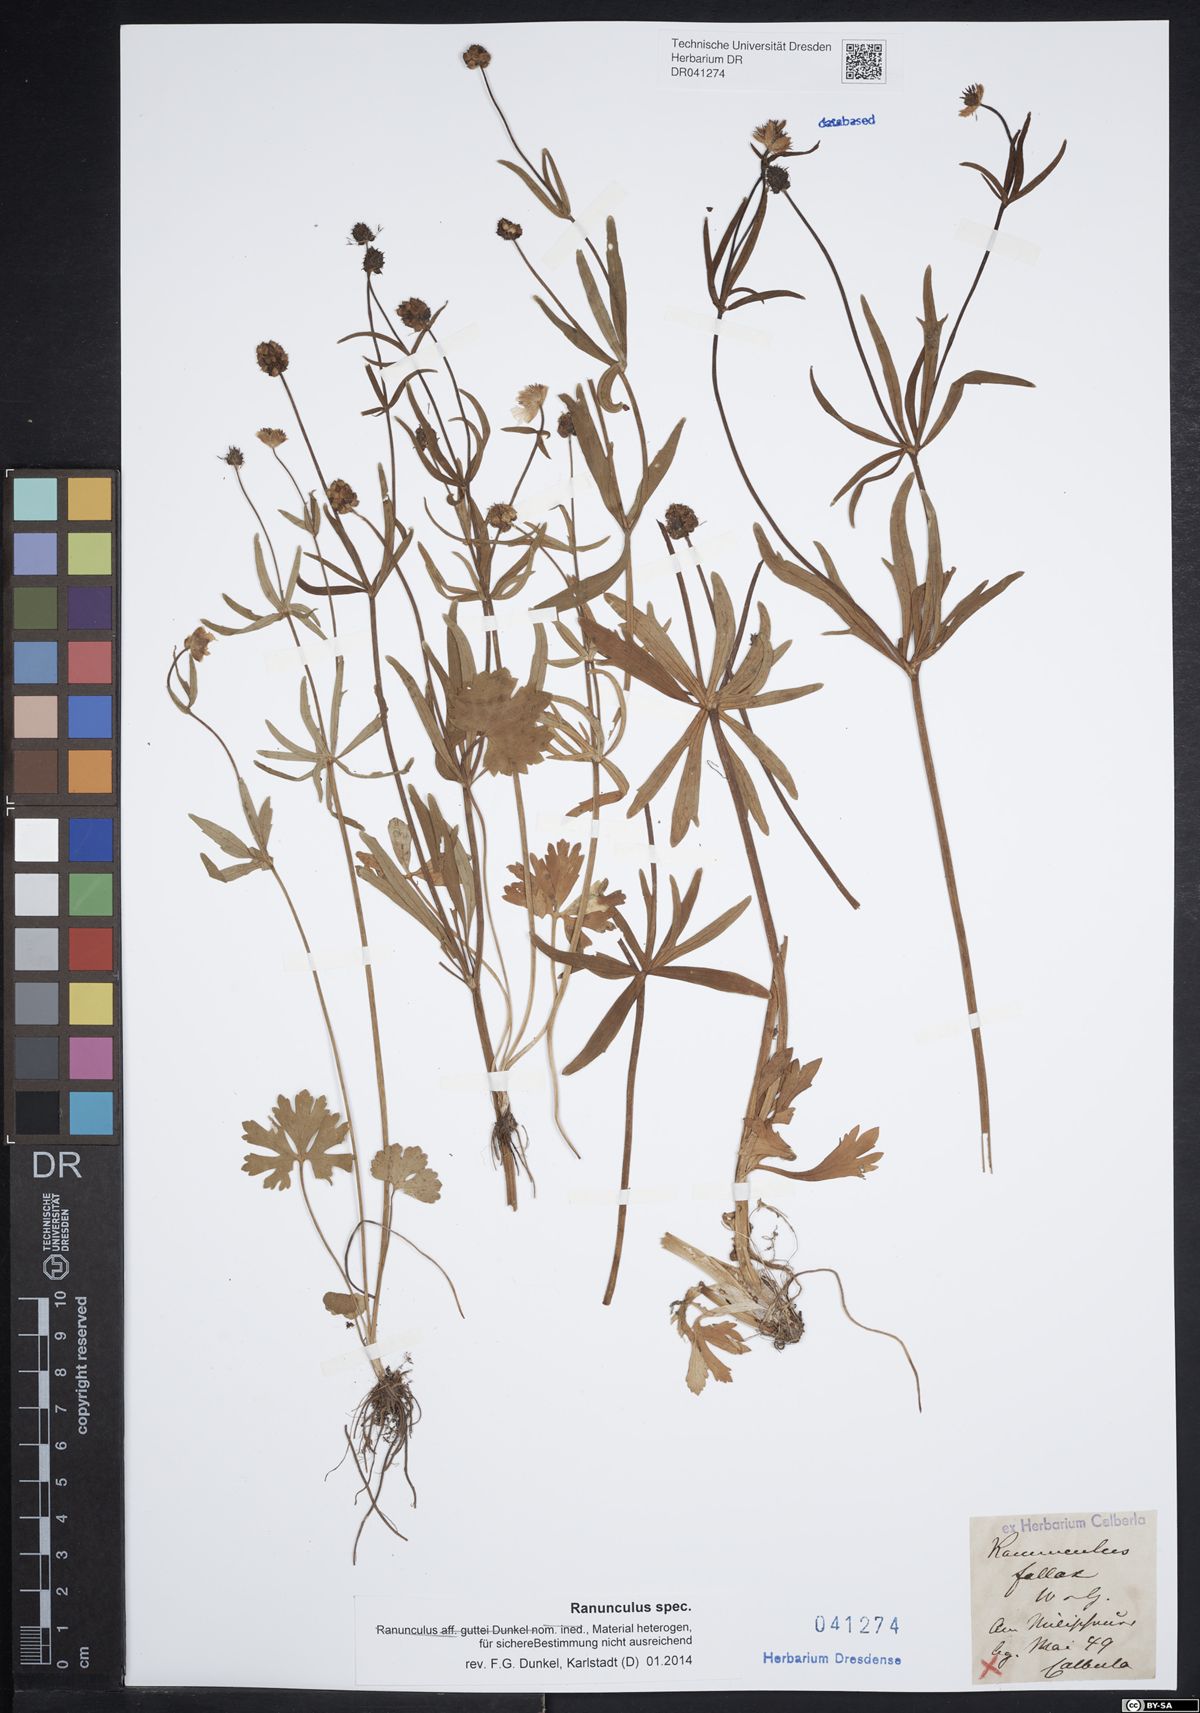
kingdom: Plantae
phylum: Tracheophyta
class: Magnoliopsida
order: Ranunculales
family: Ranunculaceae
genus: Ranunculus
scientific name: Ranunculus auricomus
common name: Goldilocks buttercup
